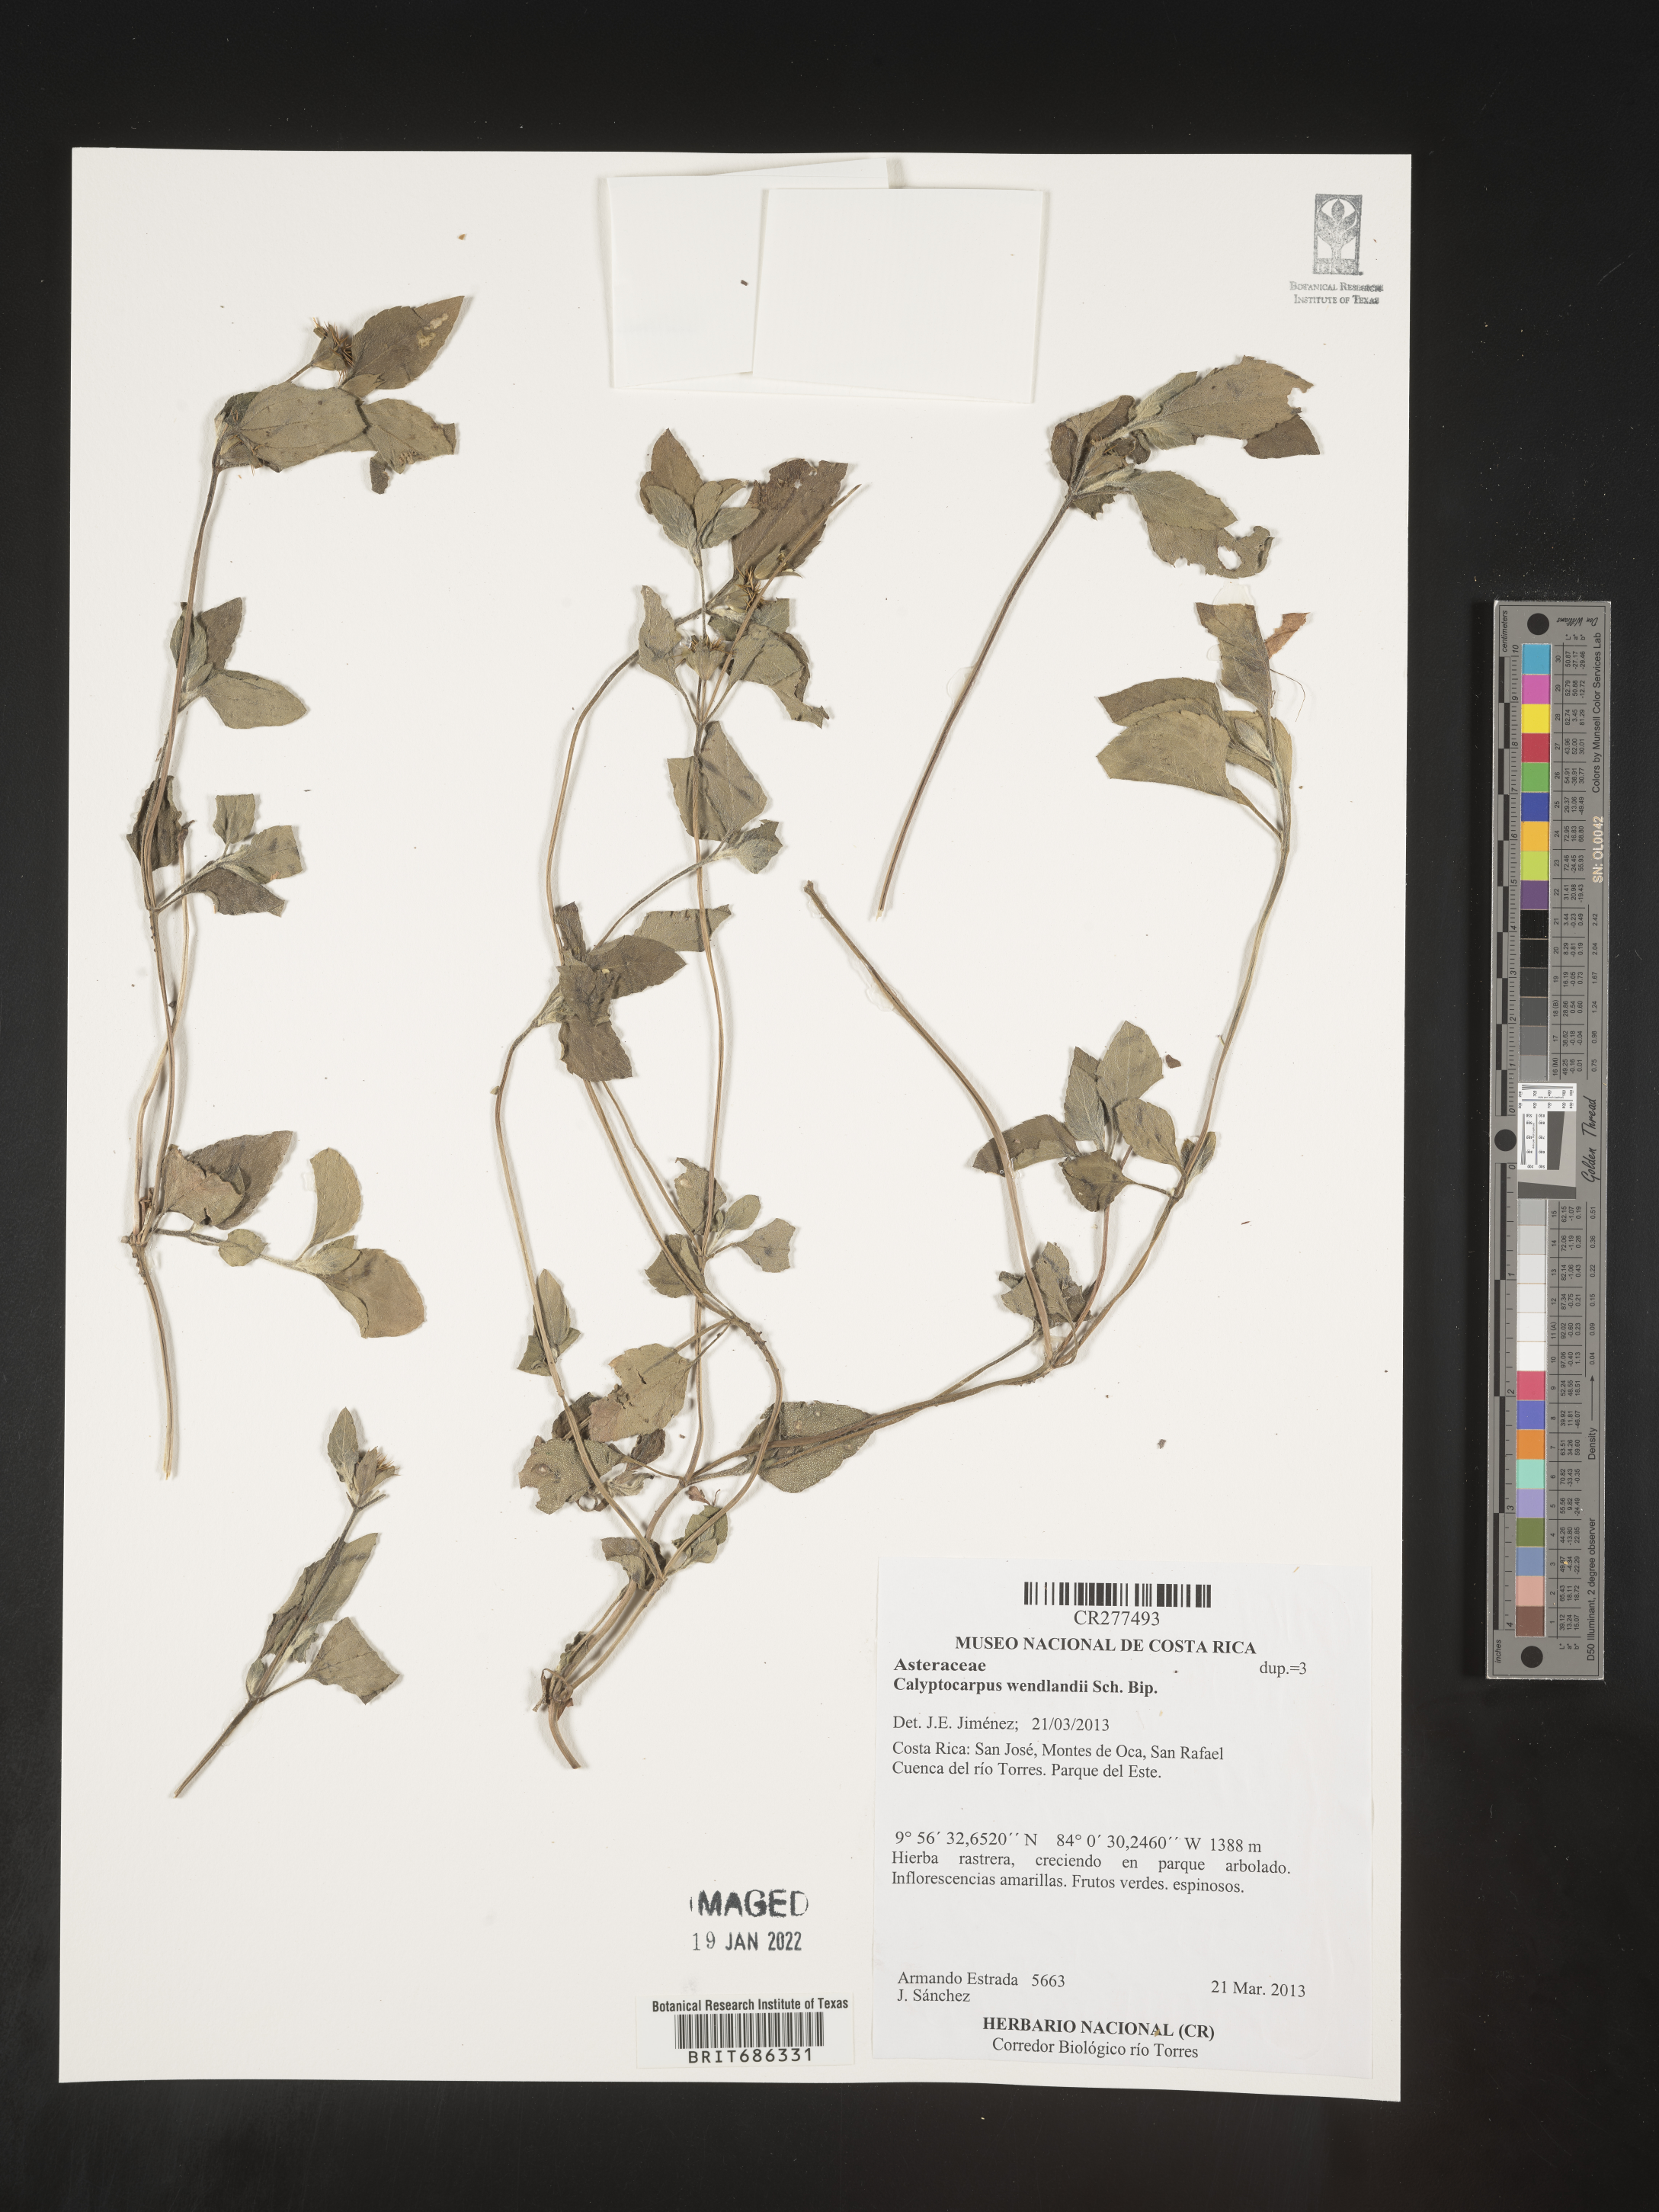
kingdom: Plantae
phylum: Tracheophyta
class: Magnoliopsida
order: Asterales
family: Asteraceae
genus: Calyptocarpus
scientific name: Calyptocarpus
